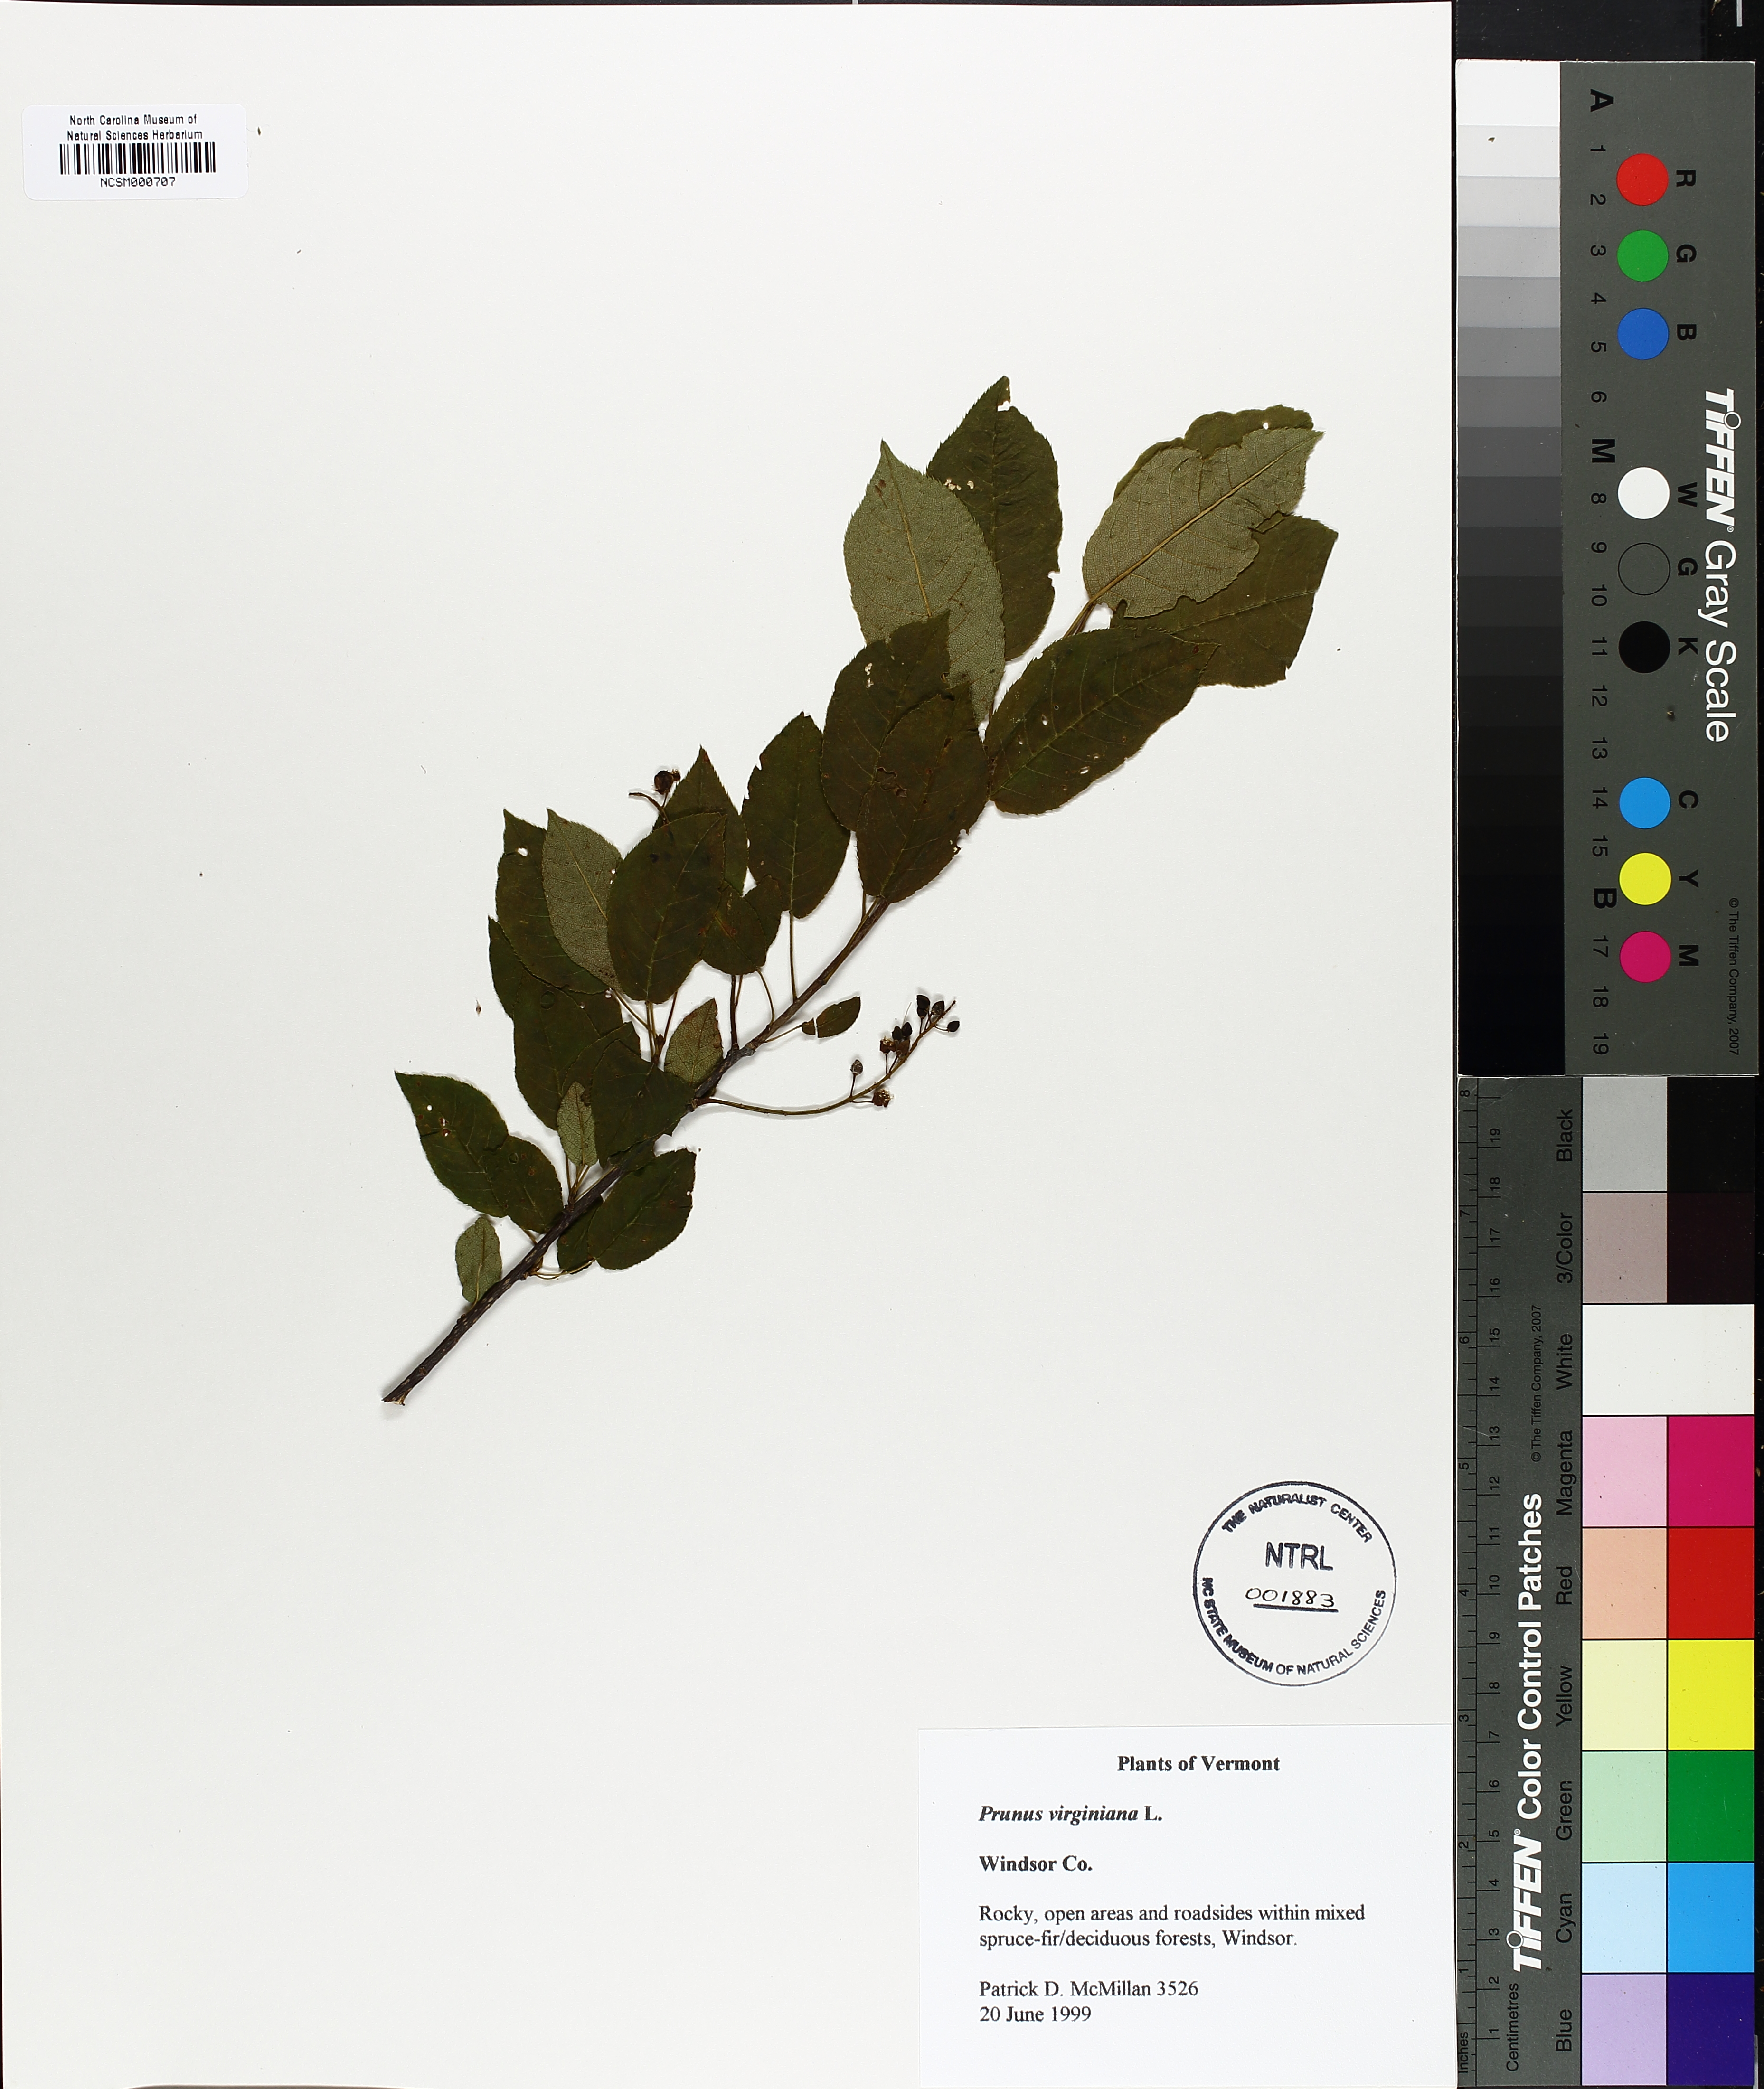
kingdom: Plantae
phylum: Tracheophyta
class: Magnoliopsida
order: Rosales
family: Rosaceae
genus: Prunus
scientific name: Prunus virginiana
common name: Chokecherry
